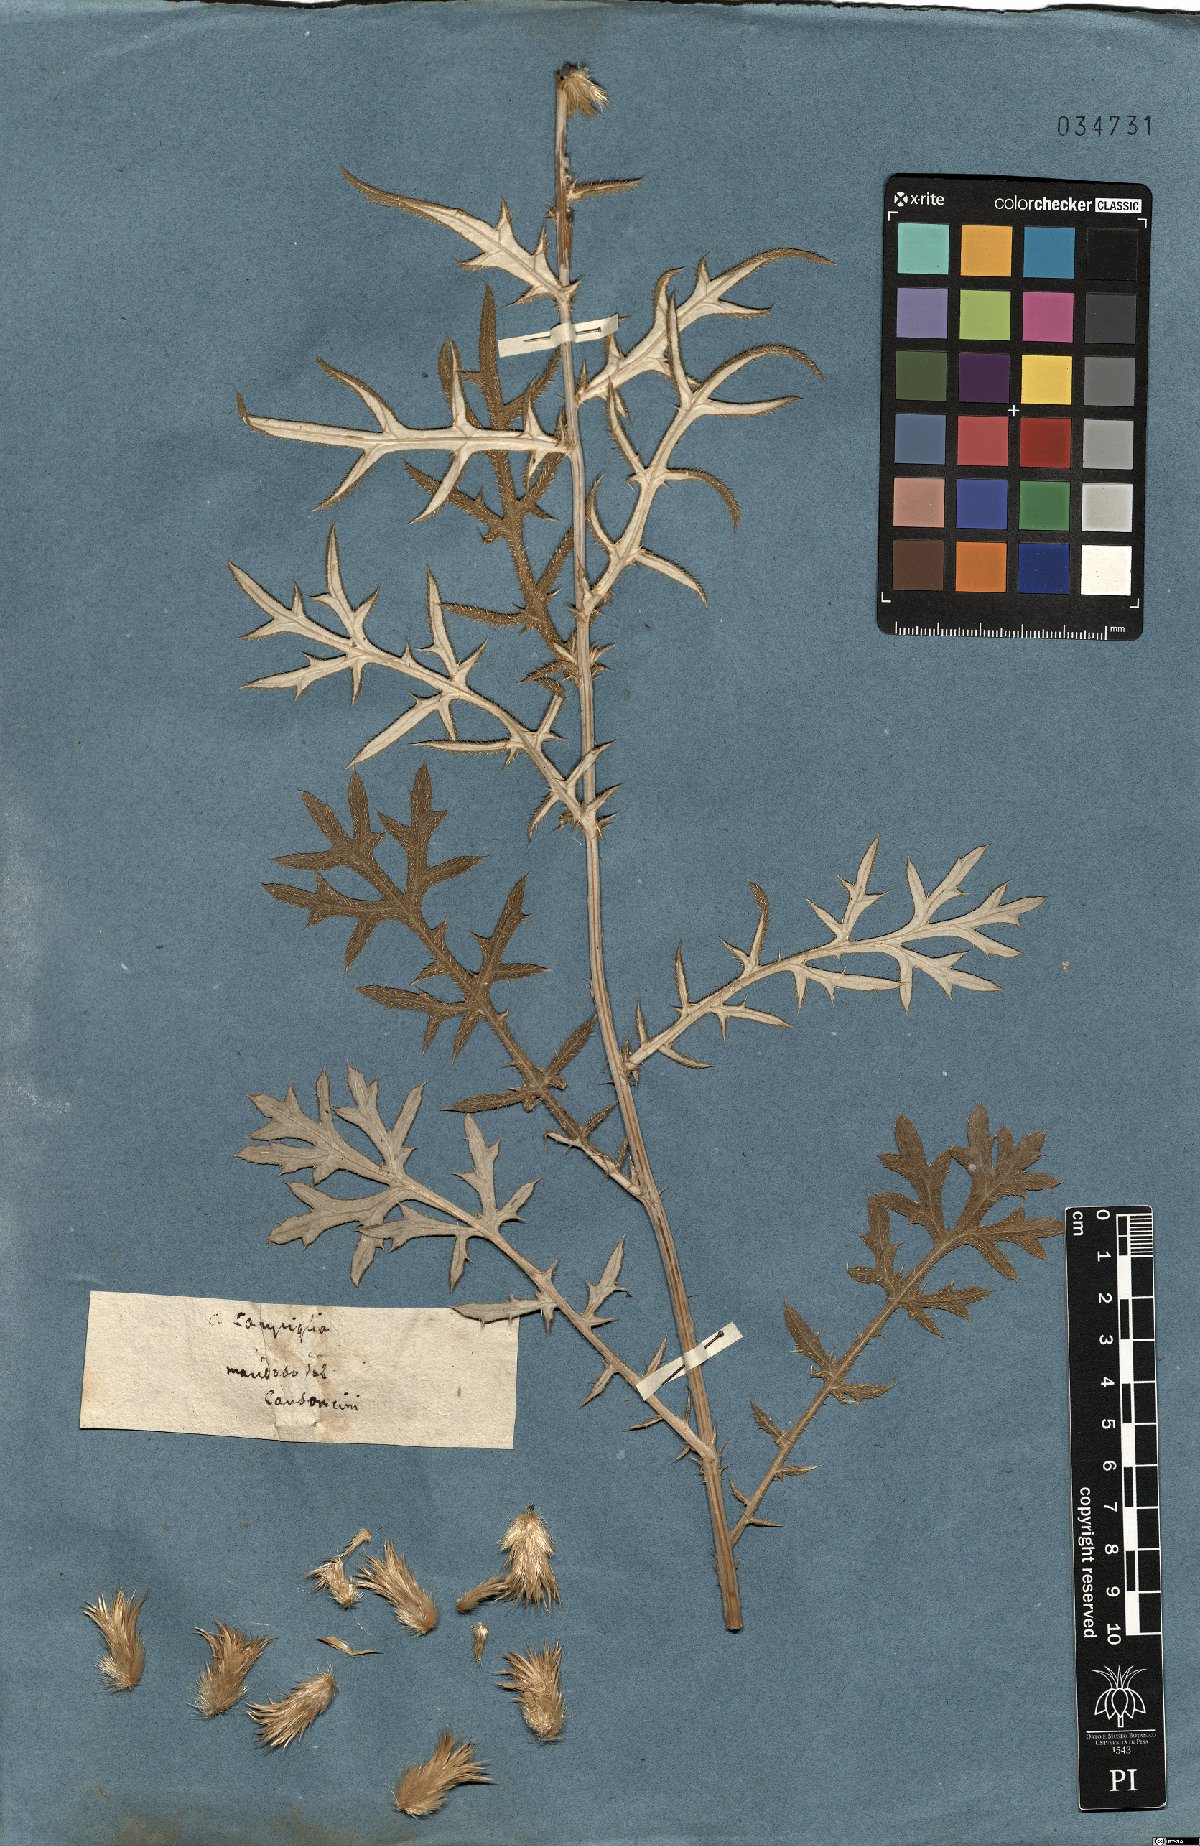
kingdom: Plantae
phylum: Tracheophyta
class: Magnoliopsida
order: Asterales
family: Asteraceae
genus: Echinops
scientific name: Echinops strigosus
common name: Rough-leaf globe thistle
